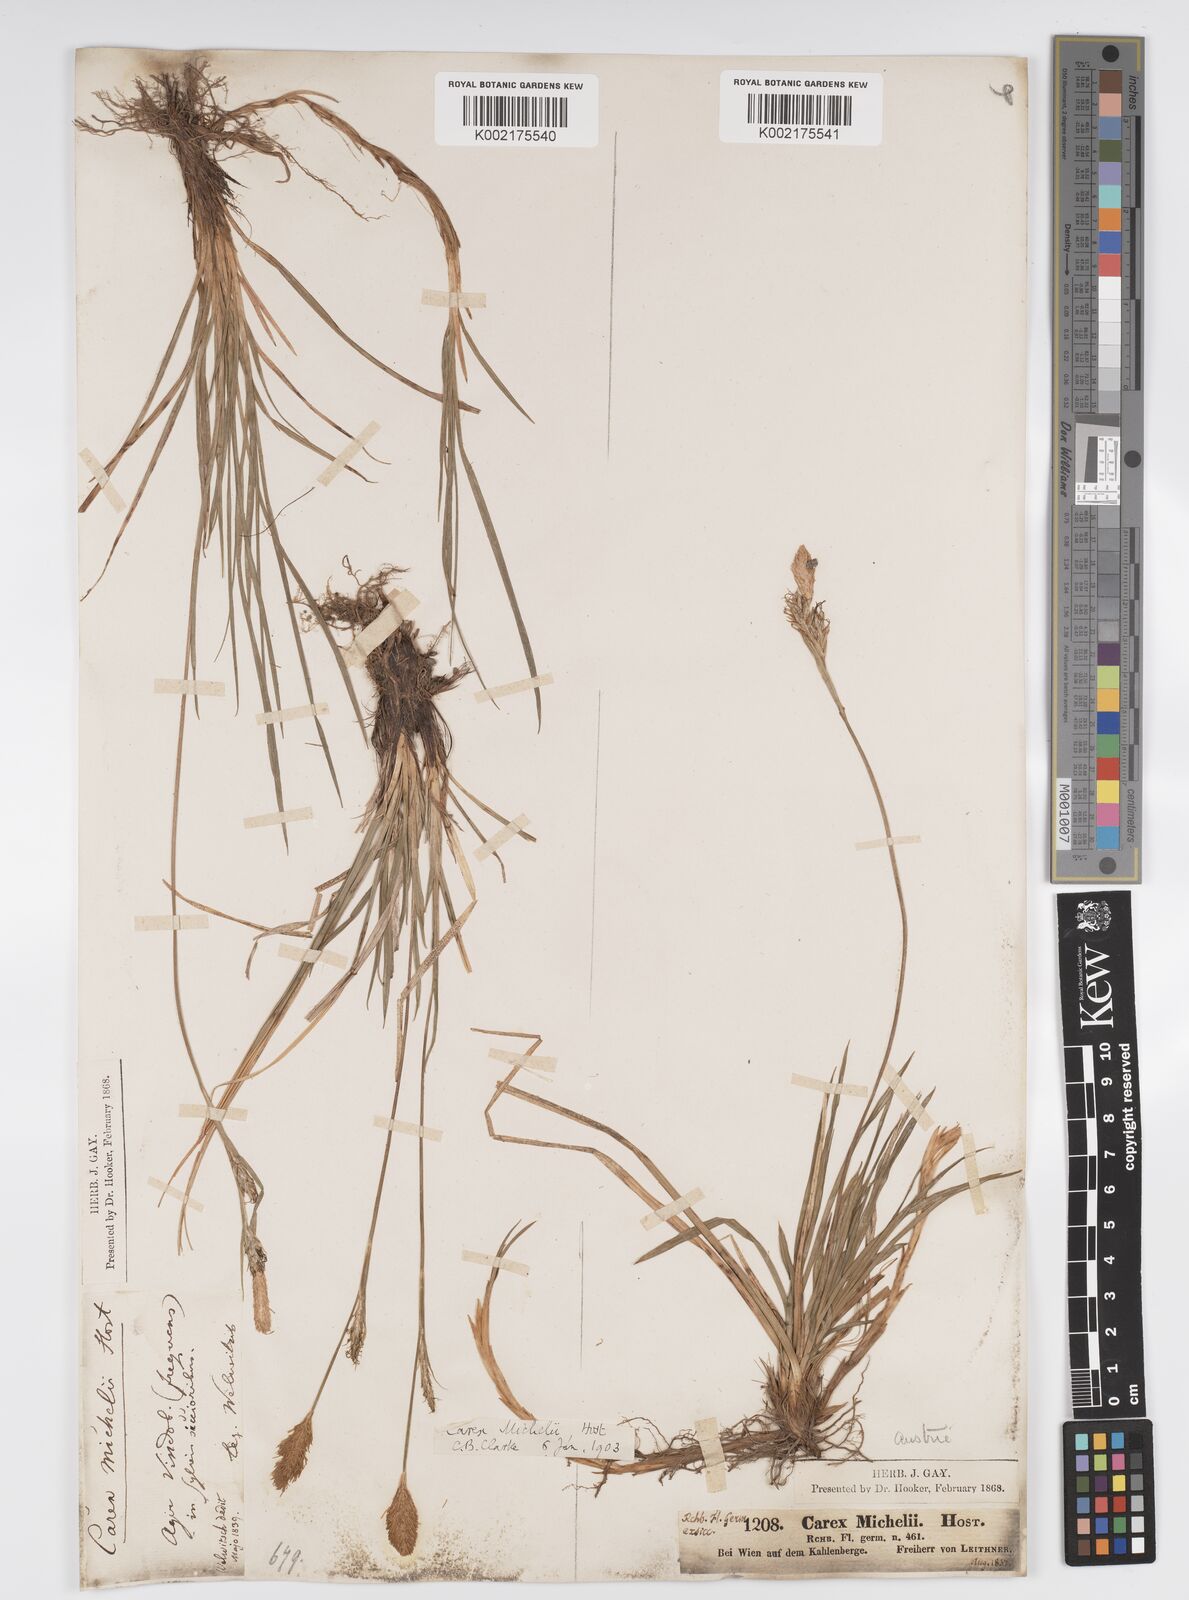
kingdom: Plantae
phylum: Tracheophyta
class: Liliopsida
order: Poales
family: Cyperaceae
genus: Carex
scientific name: Carex michelii
